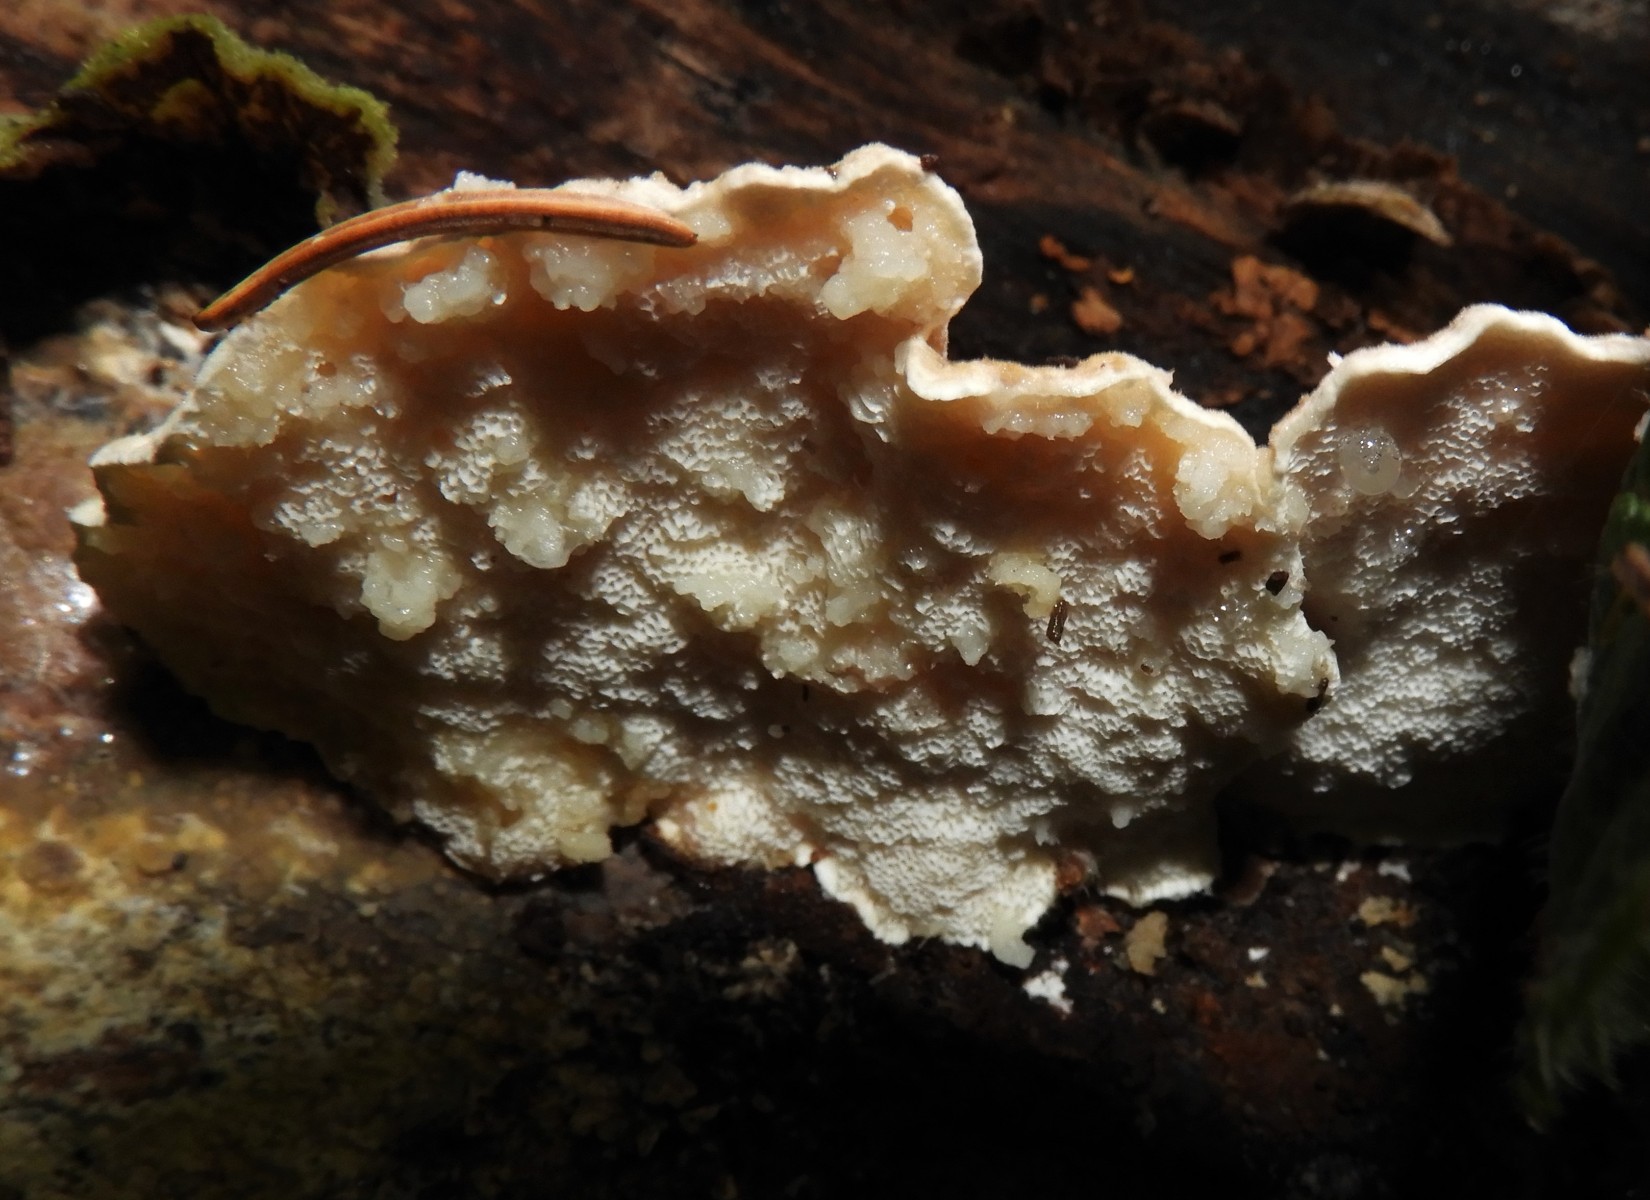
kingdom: Fungi
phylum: Basidiomycota
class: Agaricomycetes
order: Polyporales
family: Fomitopsidaceae
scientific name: Fomitopsidaceae
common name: hovporesvampfamilien
